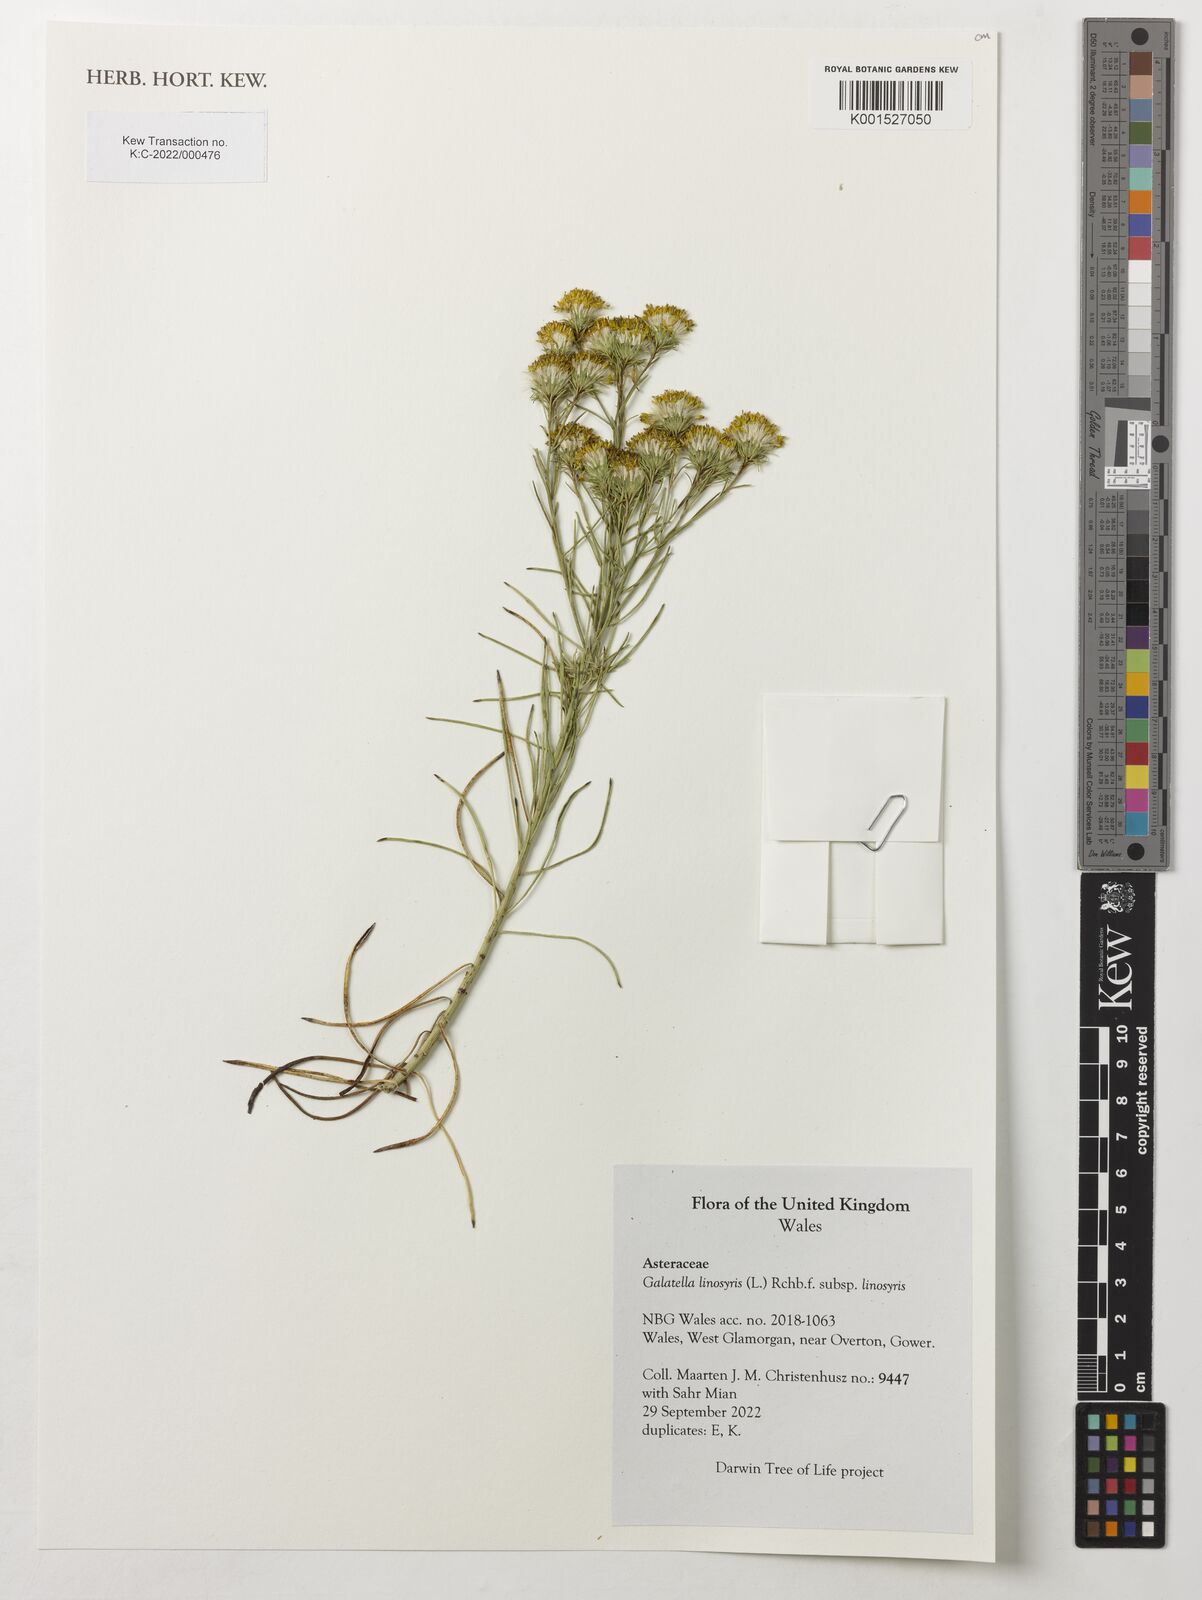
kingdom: Plantae
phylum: Tracheophyta
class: Magnoliopsida
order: Asterales
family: Asteraceae
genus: Galatella
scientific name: Galatella linosyris
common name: Goldilocks aster
